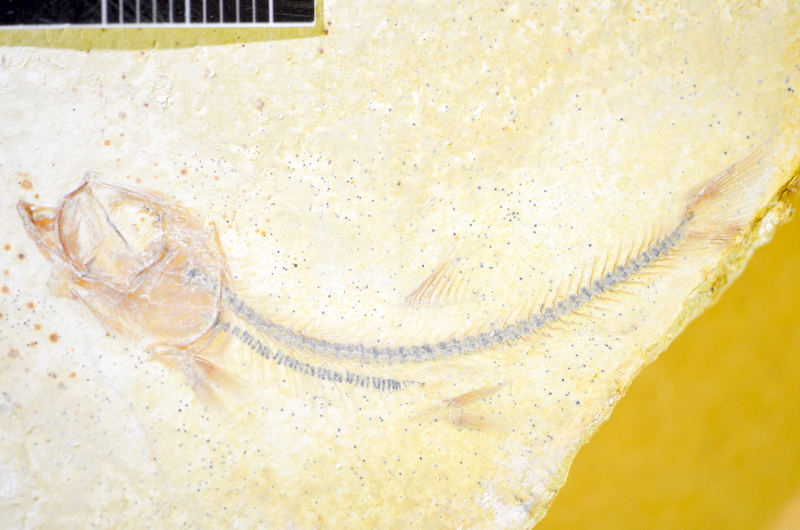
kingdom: Animalia
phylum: Chordata
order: Salmoniformes
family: Orthogonikleithridae
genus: Orthogonikleithrus
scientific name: Orthogonikleithrus hoelli
